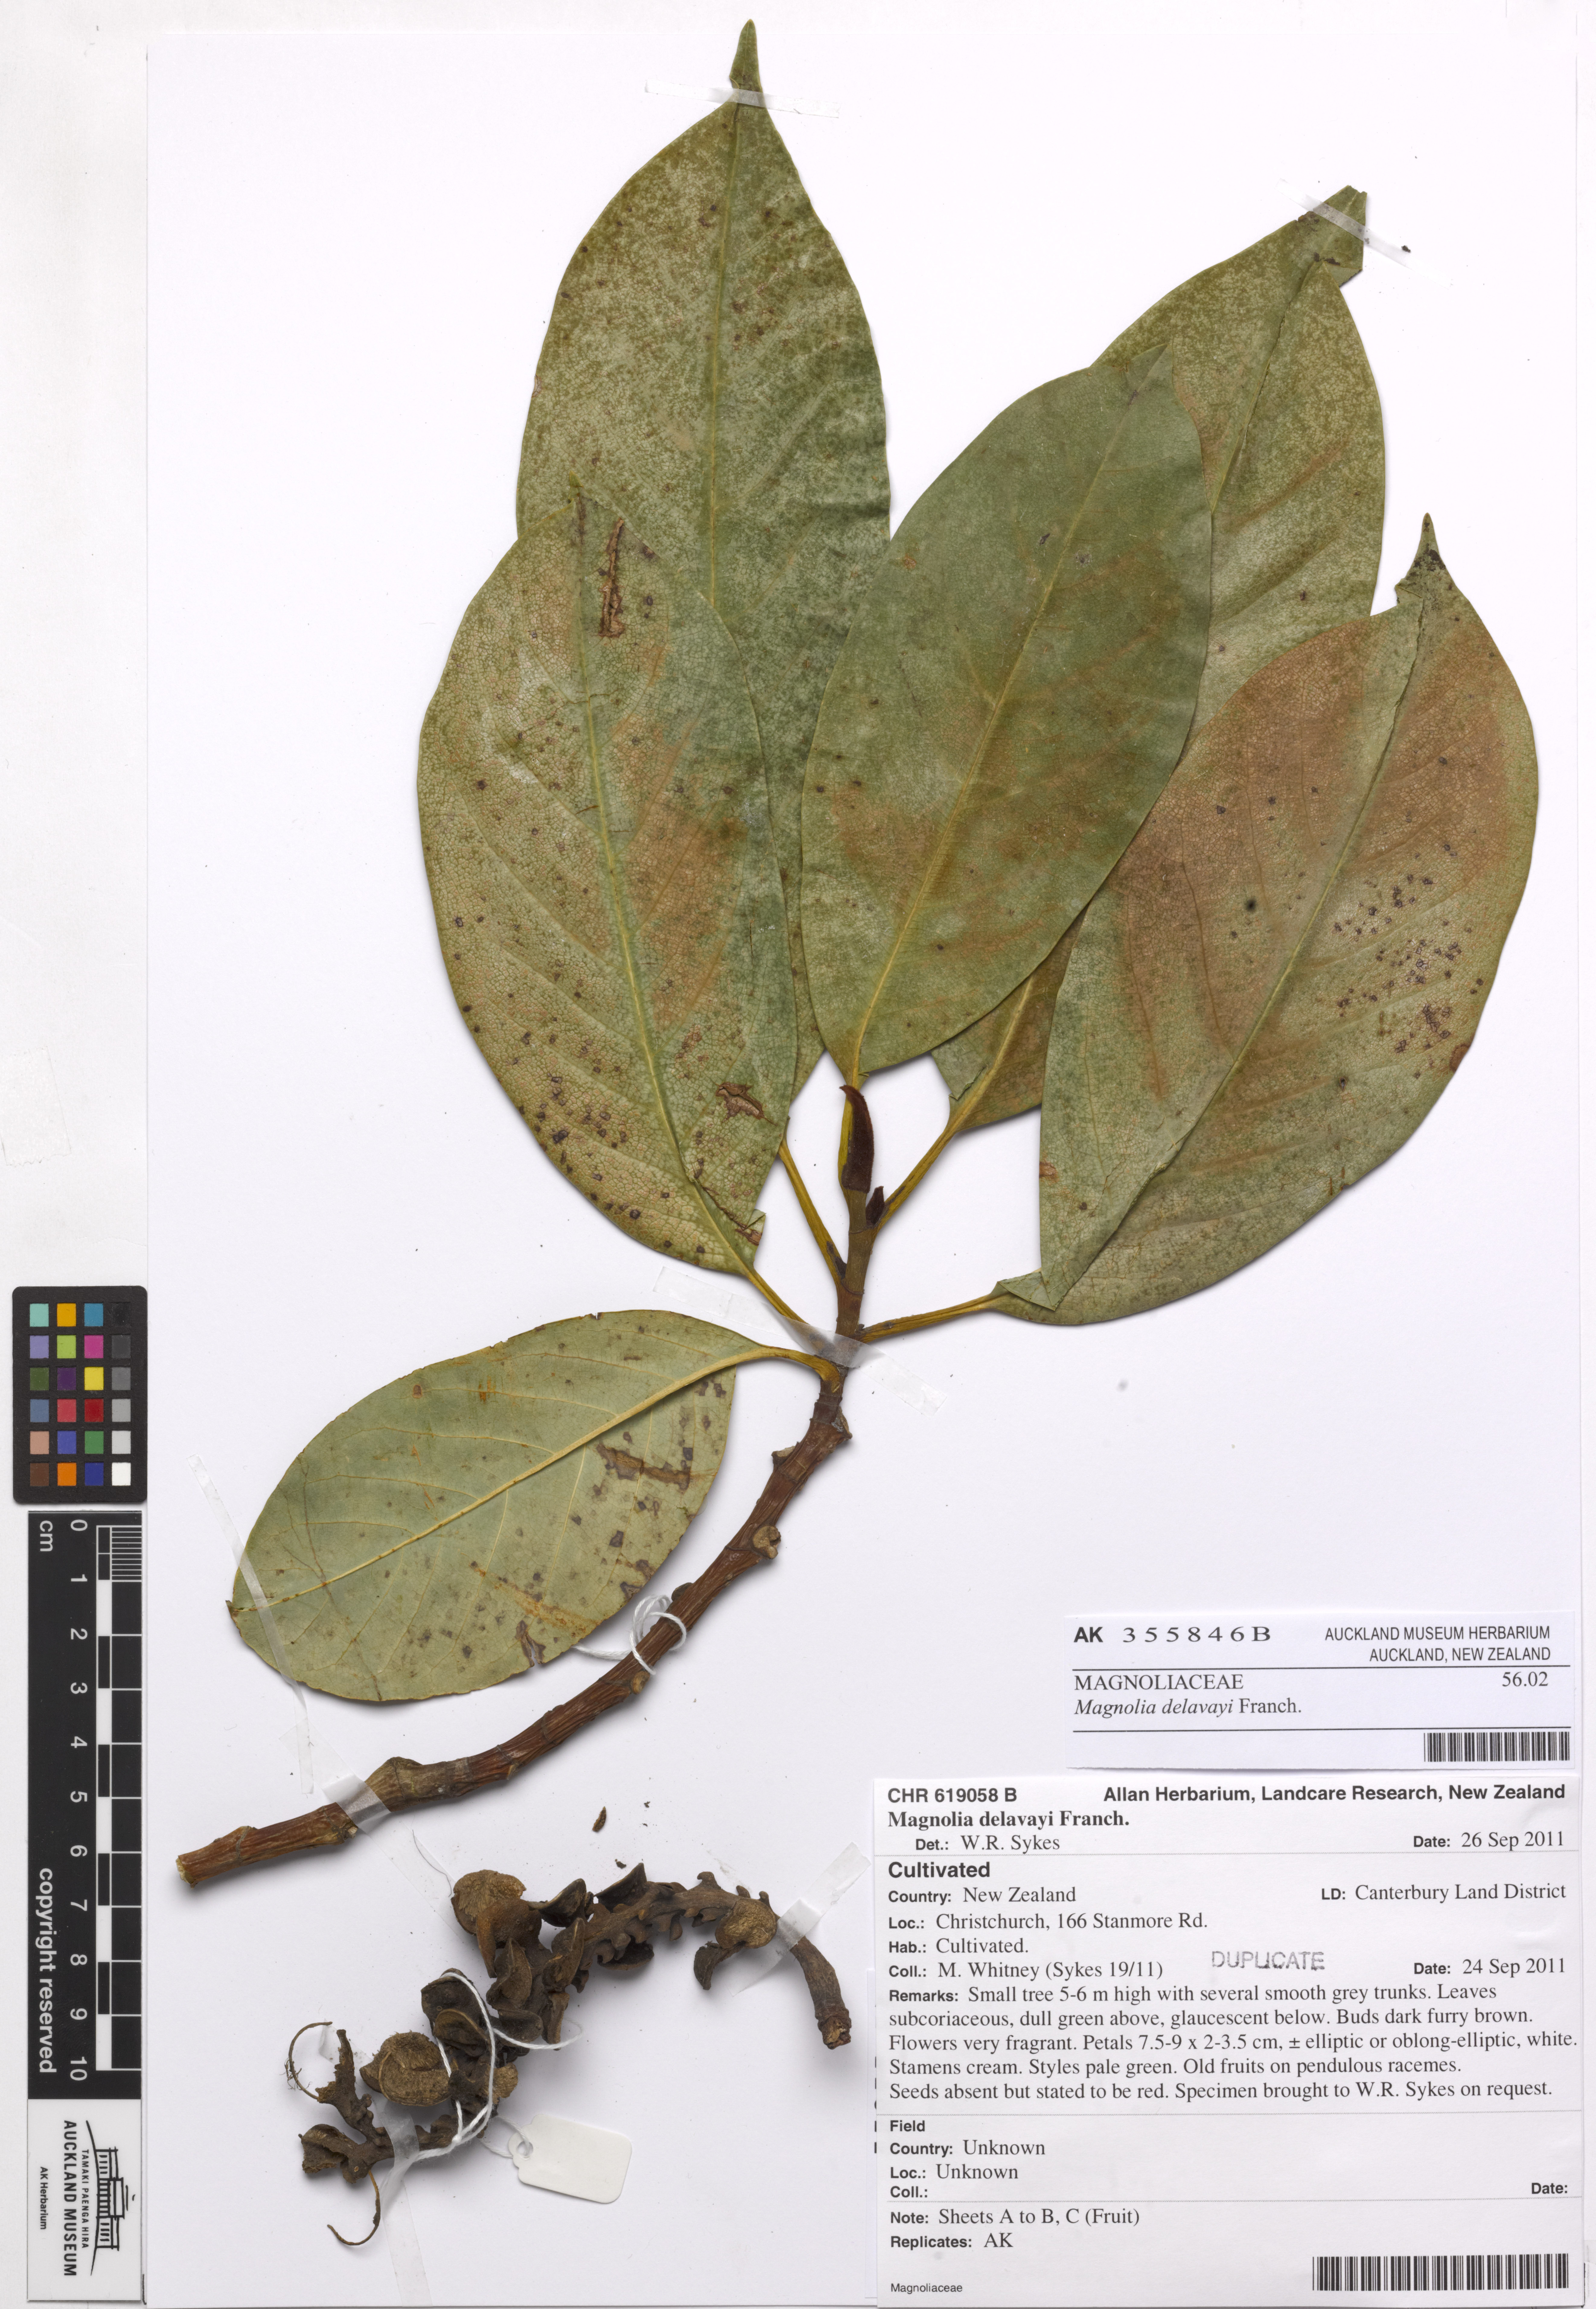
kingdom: Plantae
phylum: Tracheophyta
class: Magnoliopsida
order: Magnoliales
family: Magnoliaceae
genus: Magnolia
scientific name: Magnolia delavayi
